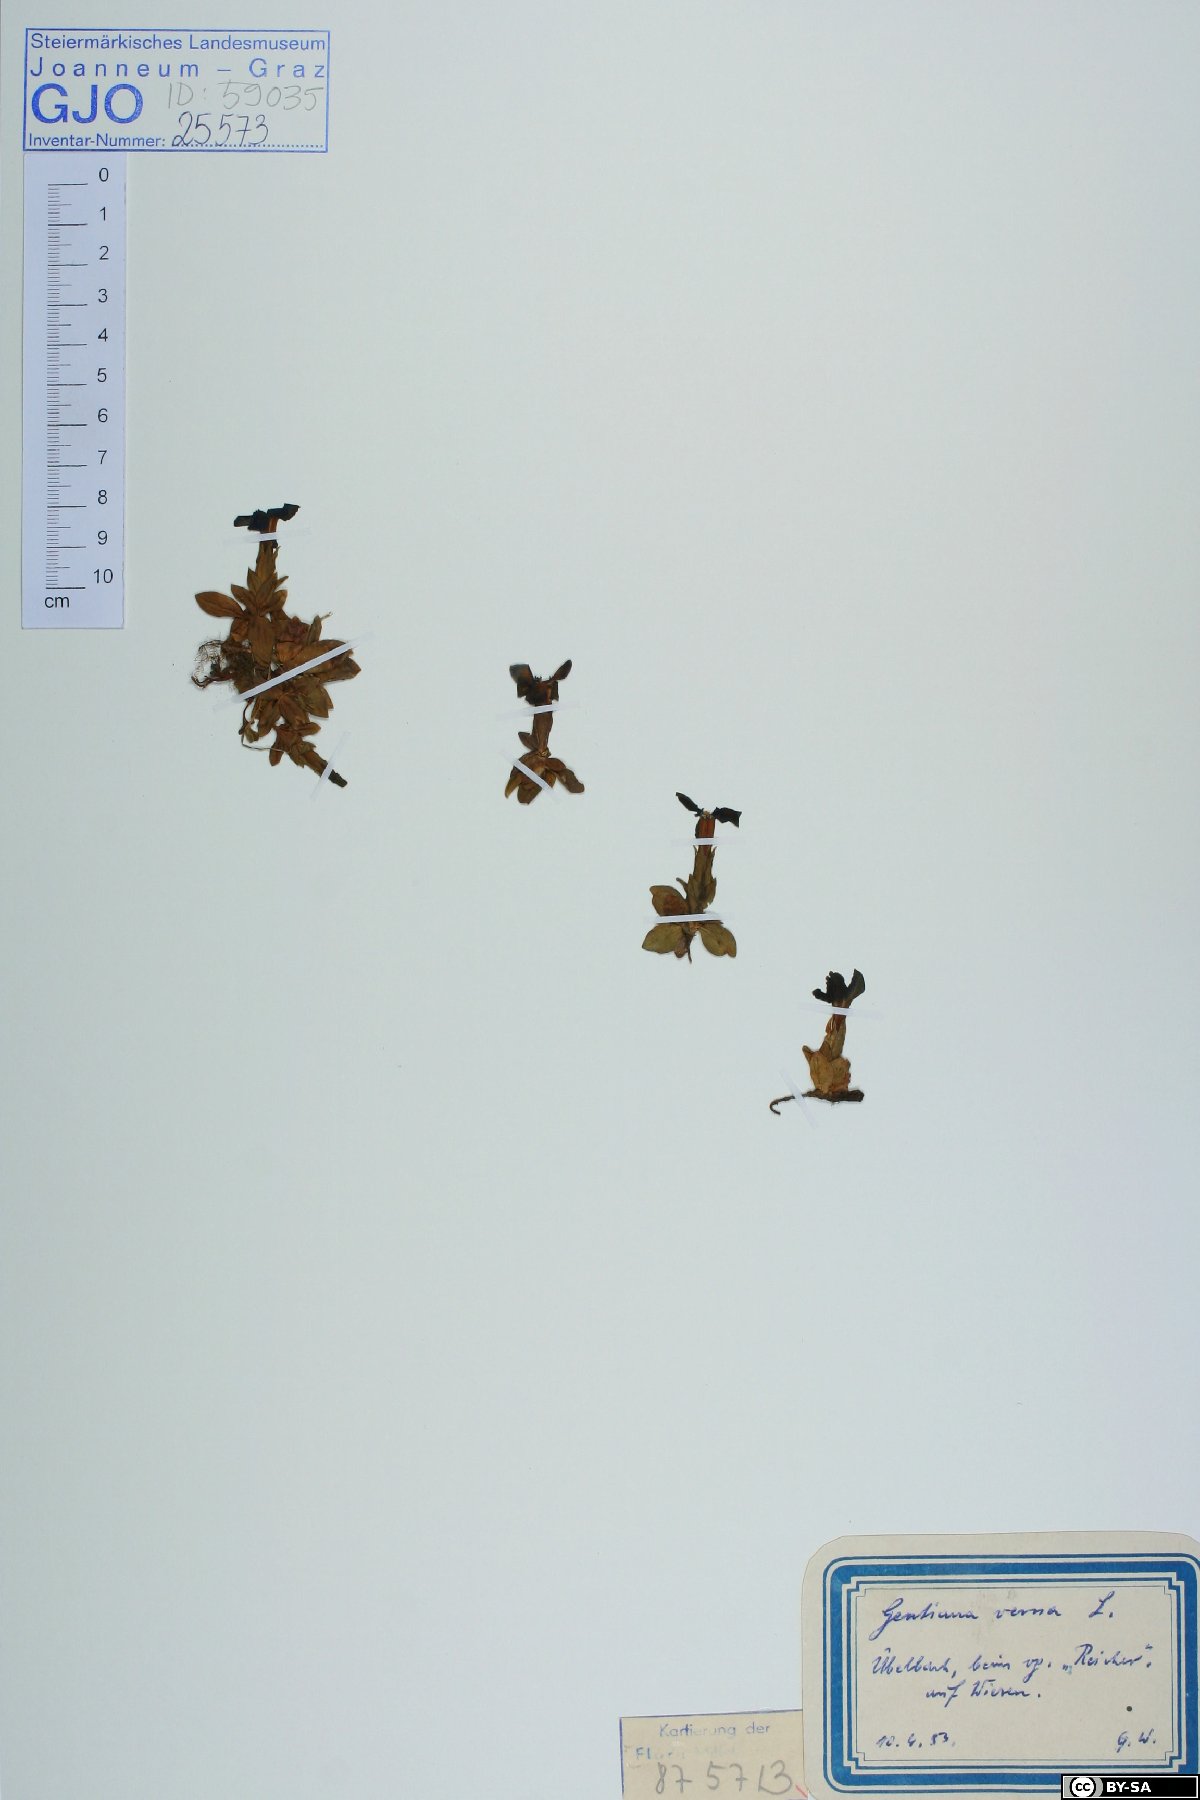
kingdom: Plantae
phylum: Tracheophyta
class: Magnoliopsida
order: Gentianales
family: Gentianaceae
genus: Gentiana
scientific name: Gentiana verna
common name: Spring gentian
